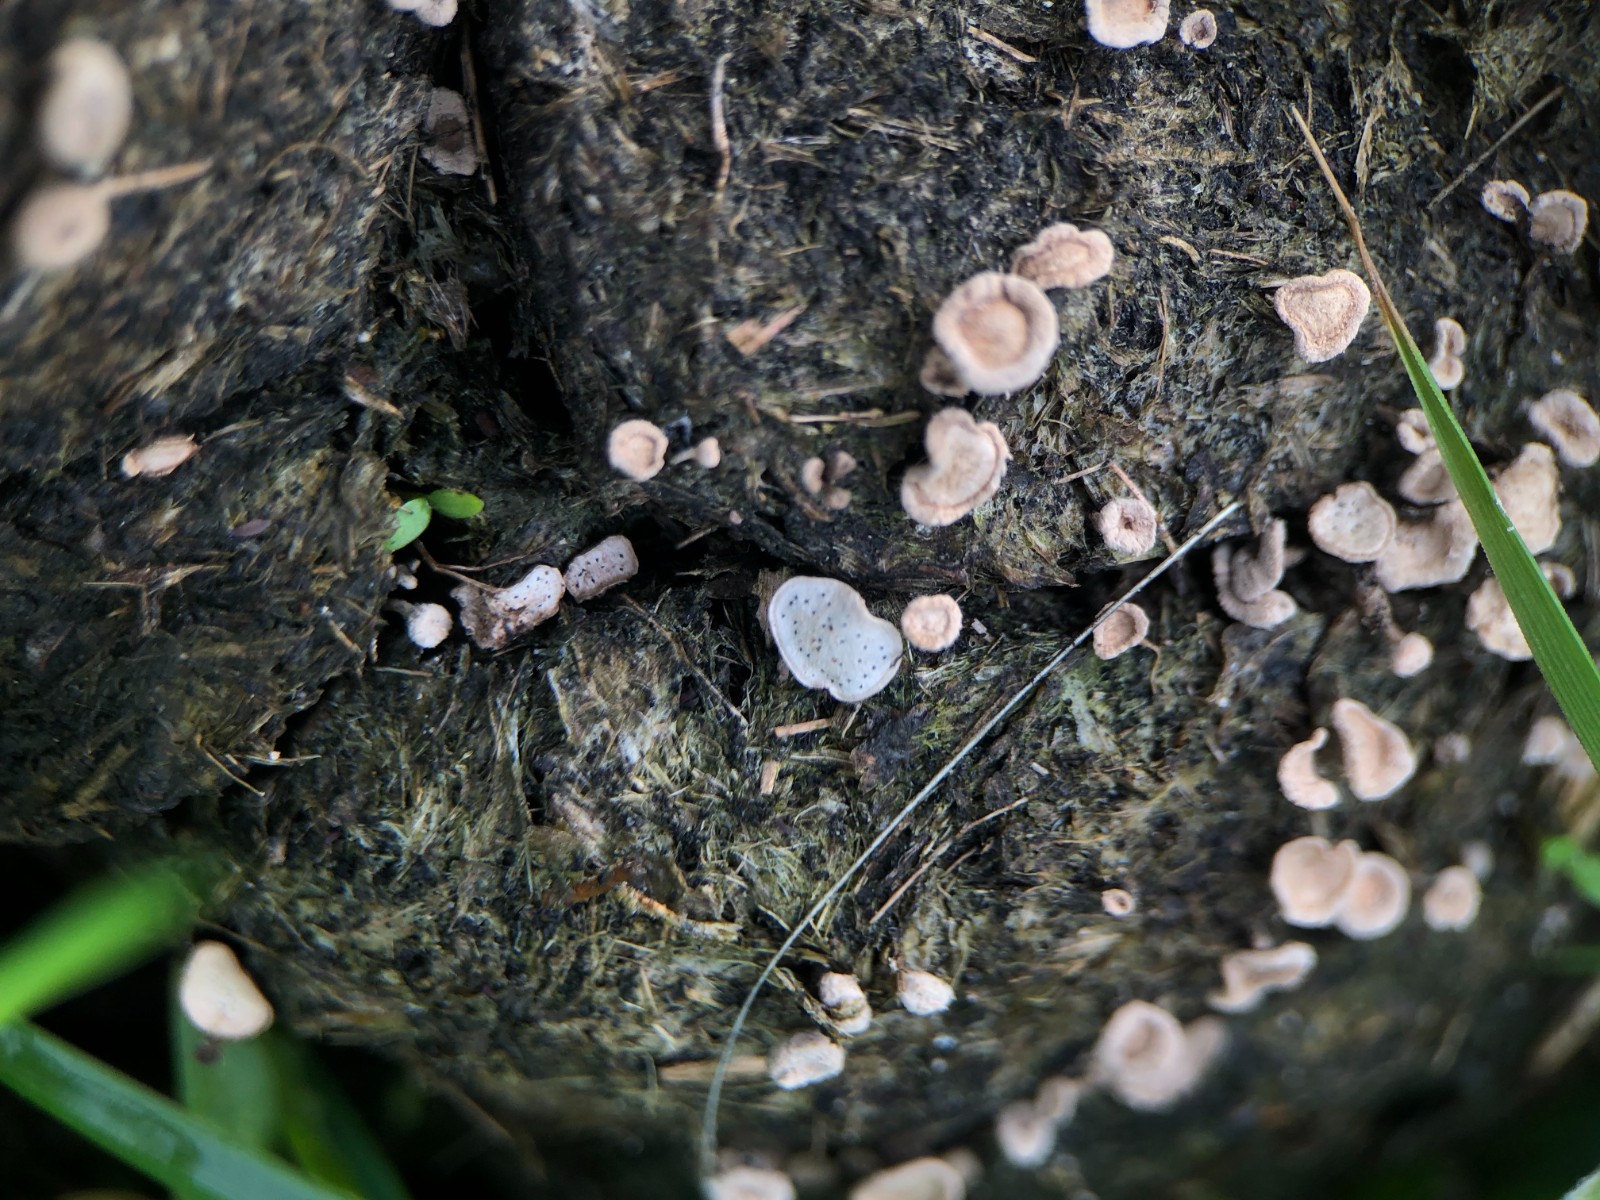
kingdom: Fungi
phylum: Ascomycota
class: Sordariomycetes
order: Xylariales
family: Xylariaceae
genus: Poronia
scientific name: Poronia punctata
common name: stor priksvamp
